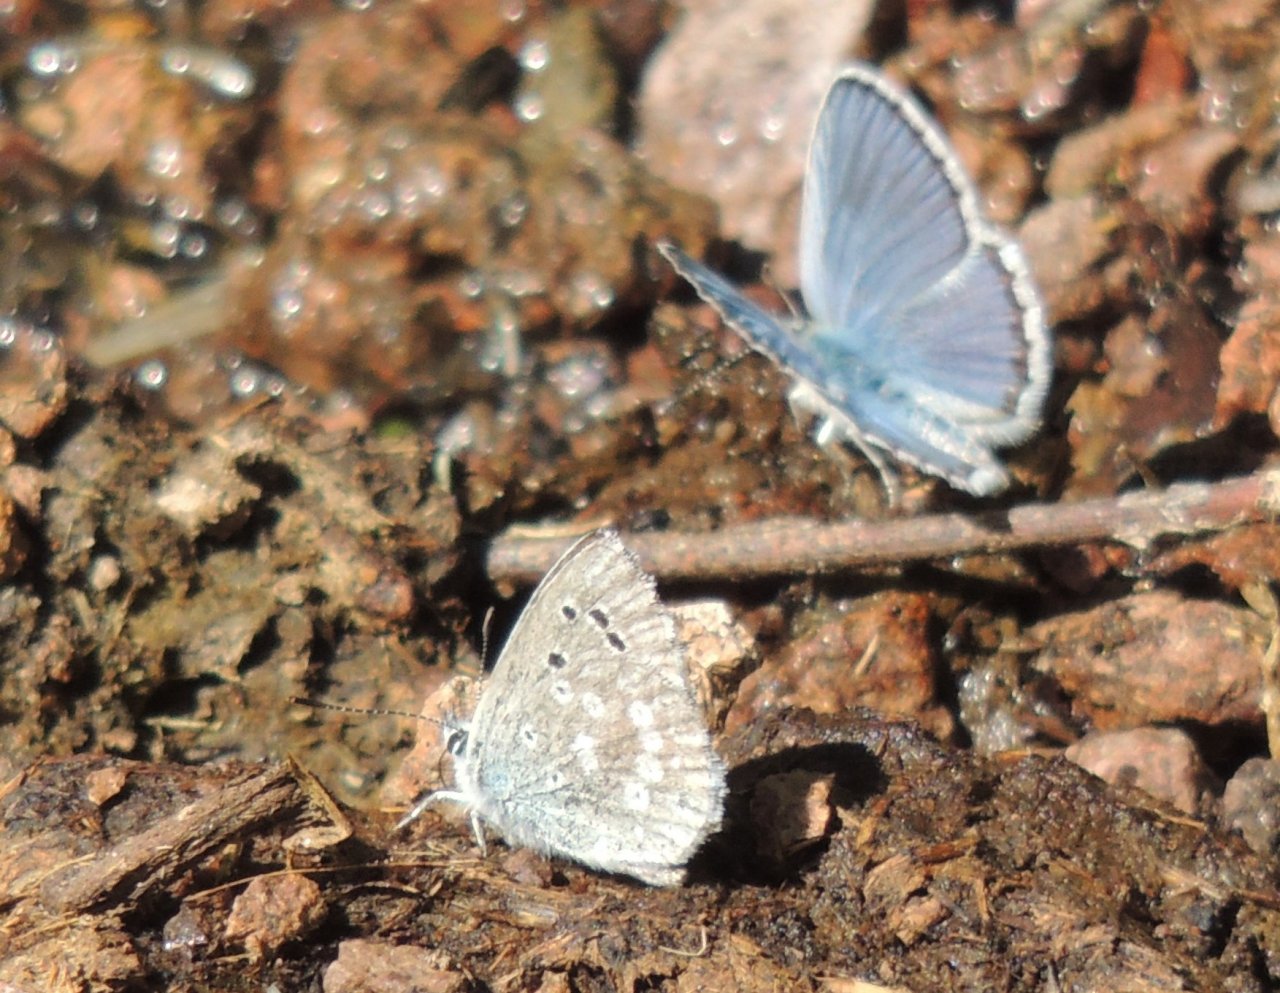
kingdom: Animalia
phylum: Arthropoda
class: Insecta
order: Lepidoptera
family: Lycaenidae
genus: Icaricia
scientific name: Icaricia icarioides
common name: Boisduval's Blue
